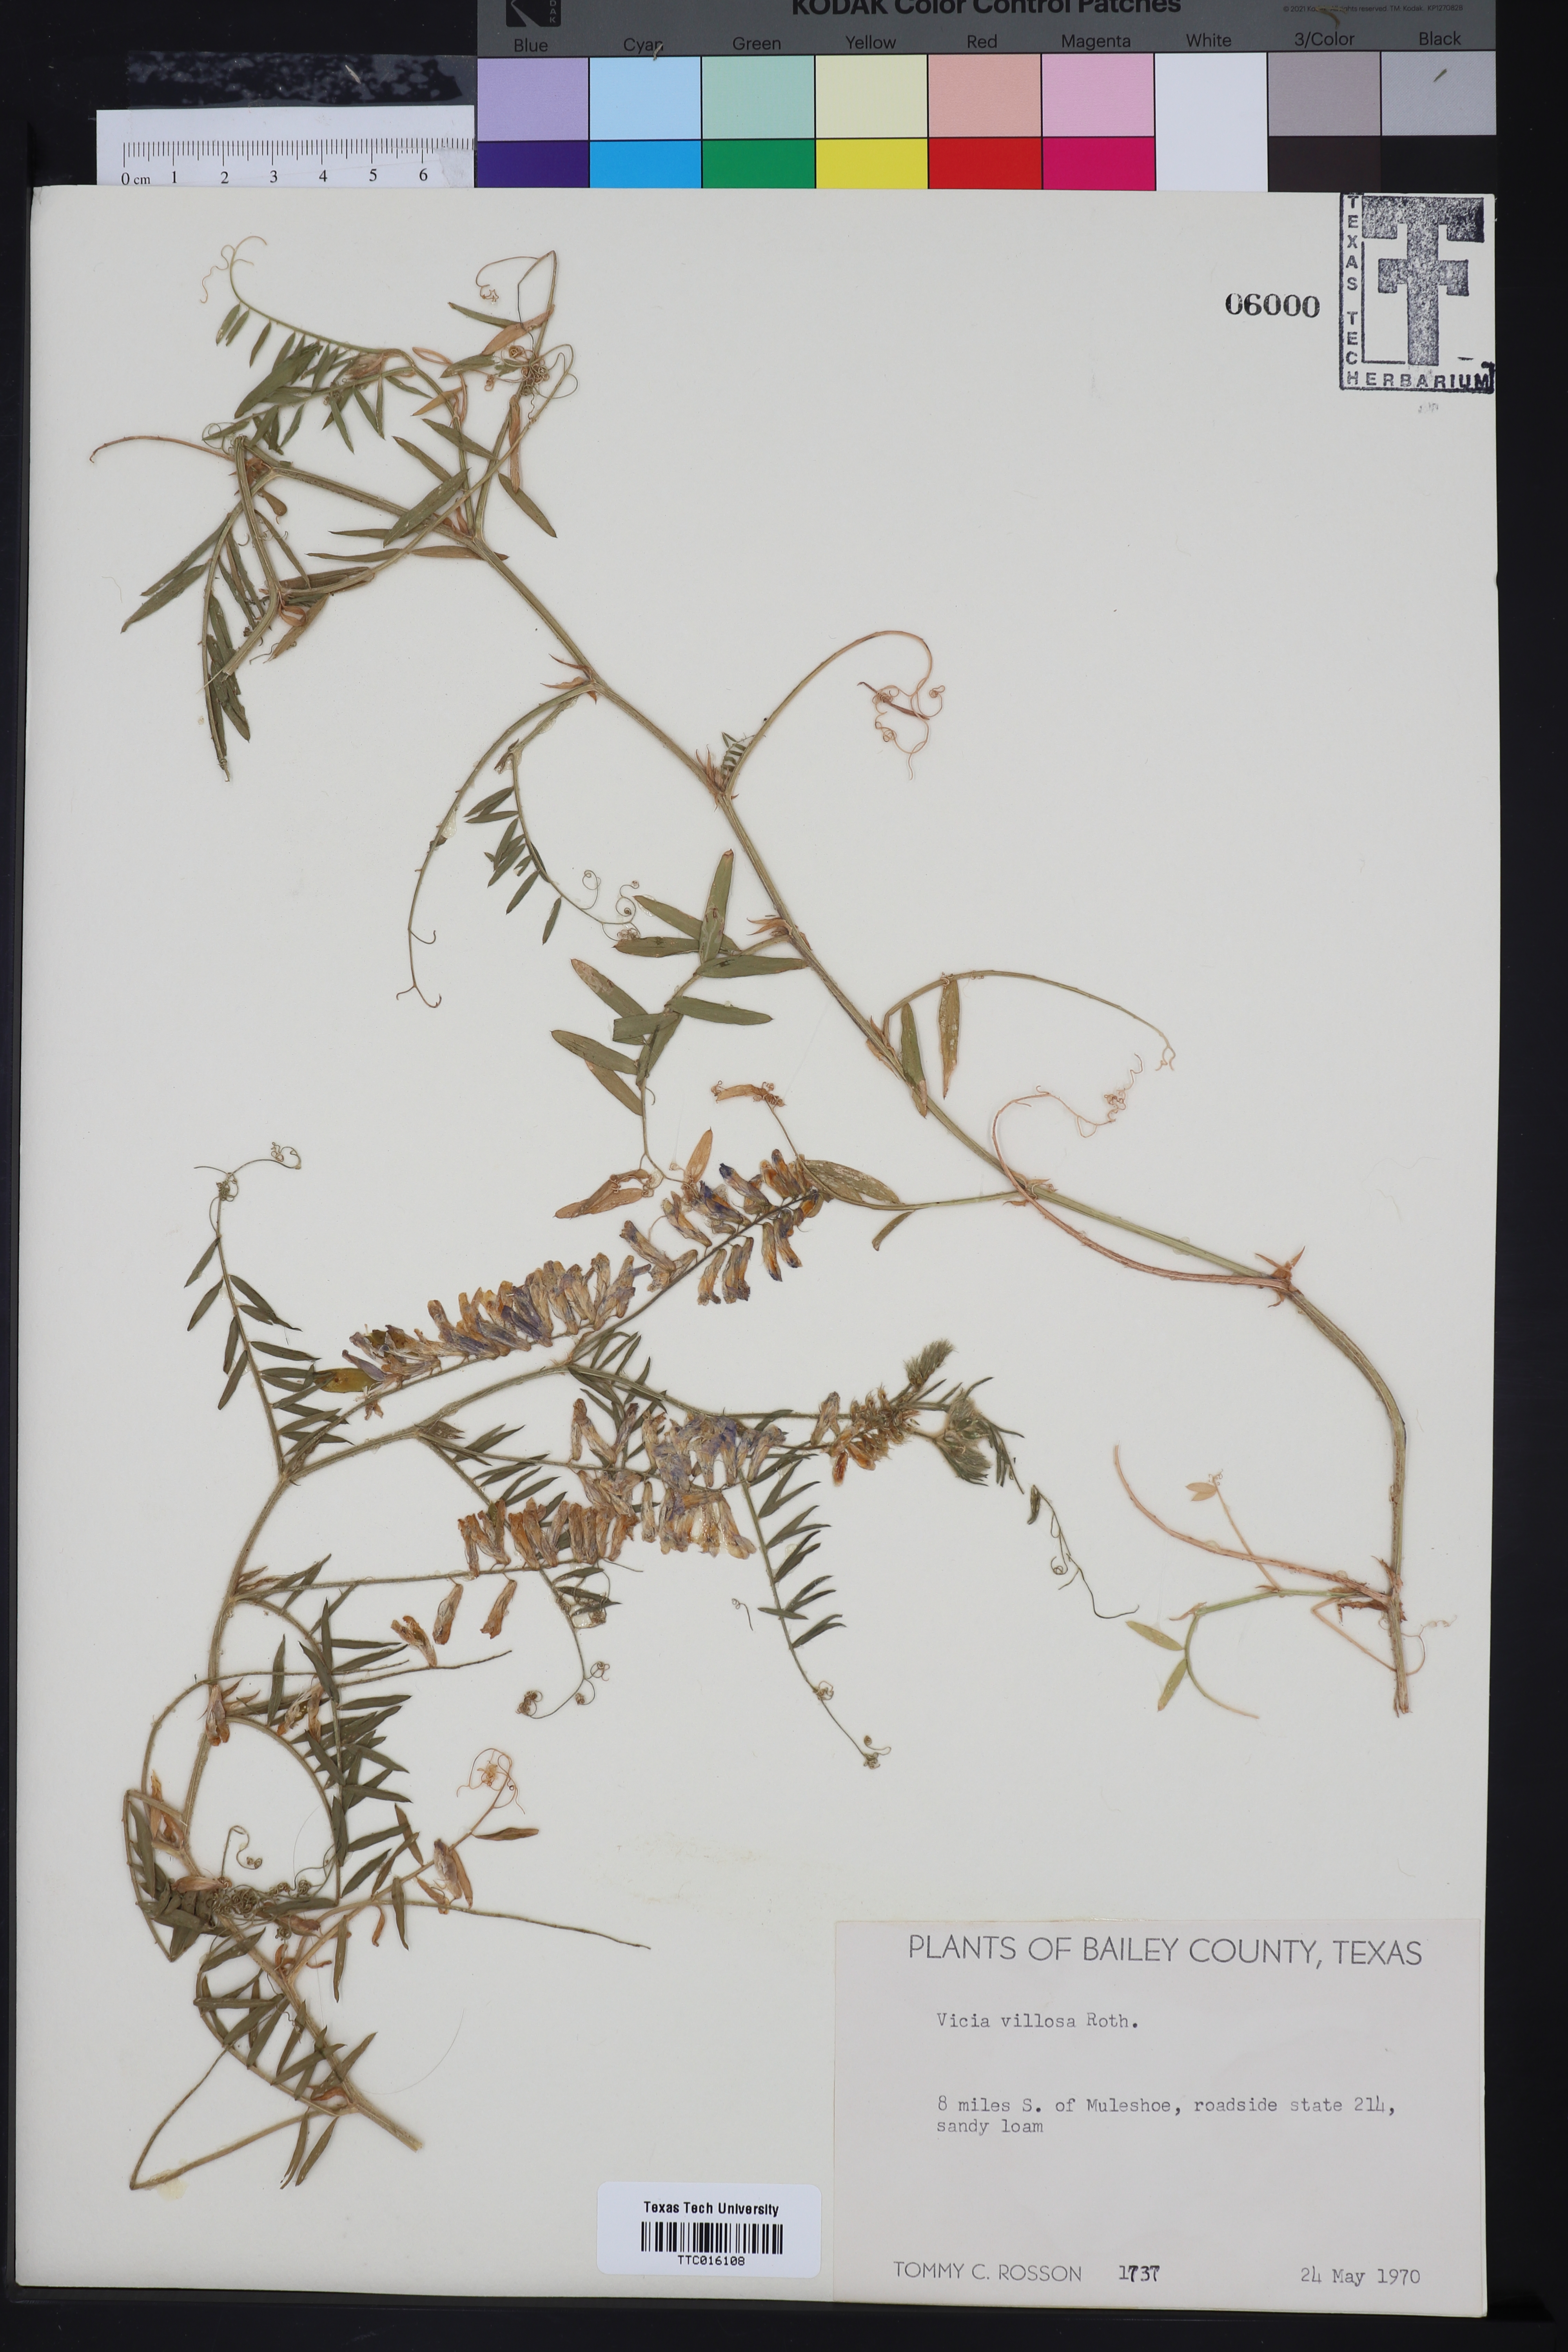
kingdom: Plantae
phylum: Tracheophyta
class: Magnoliopsida
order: Fabales
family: Fabaceae
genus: Vicia
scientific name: Vicia villosa
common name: Fodder vetch
